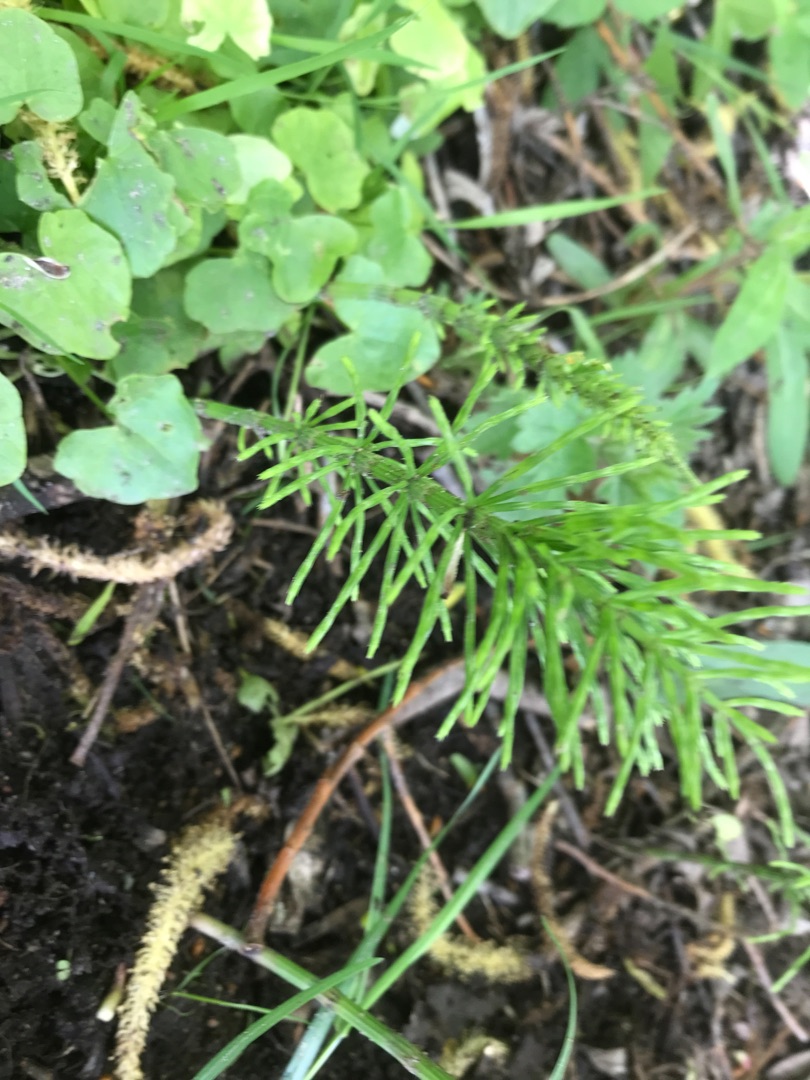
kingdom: Plantae
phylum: Tracheophyta
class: Polypodiopsida
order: Equisetales
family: Equisetaceae
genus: Equisetum
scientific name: Equisetum arvense
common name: Ager-padderok
